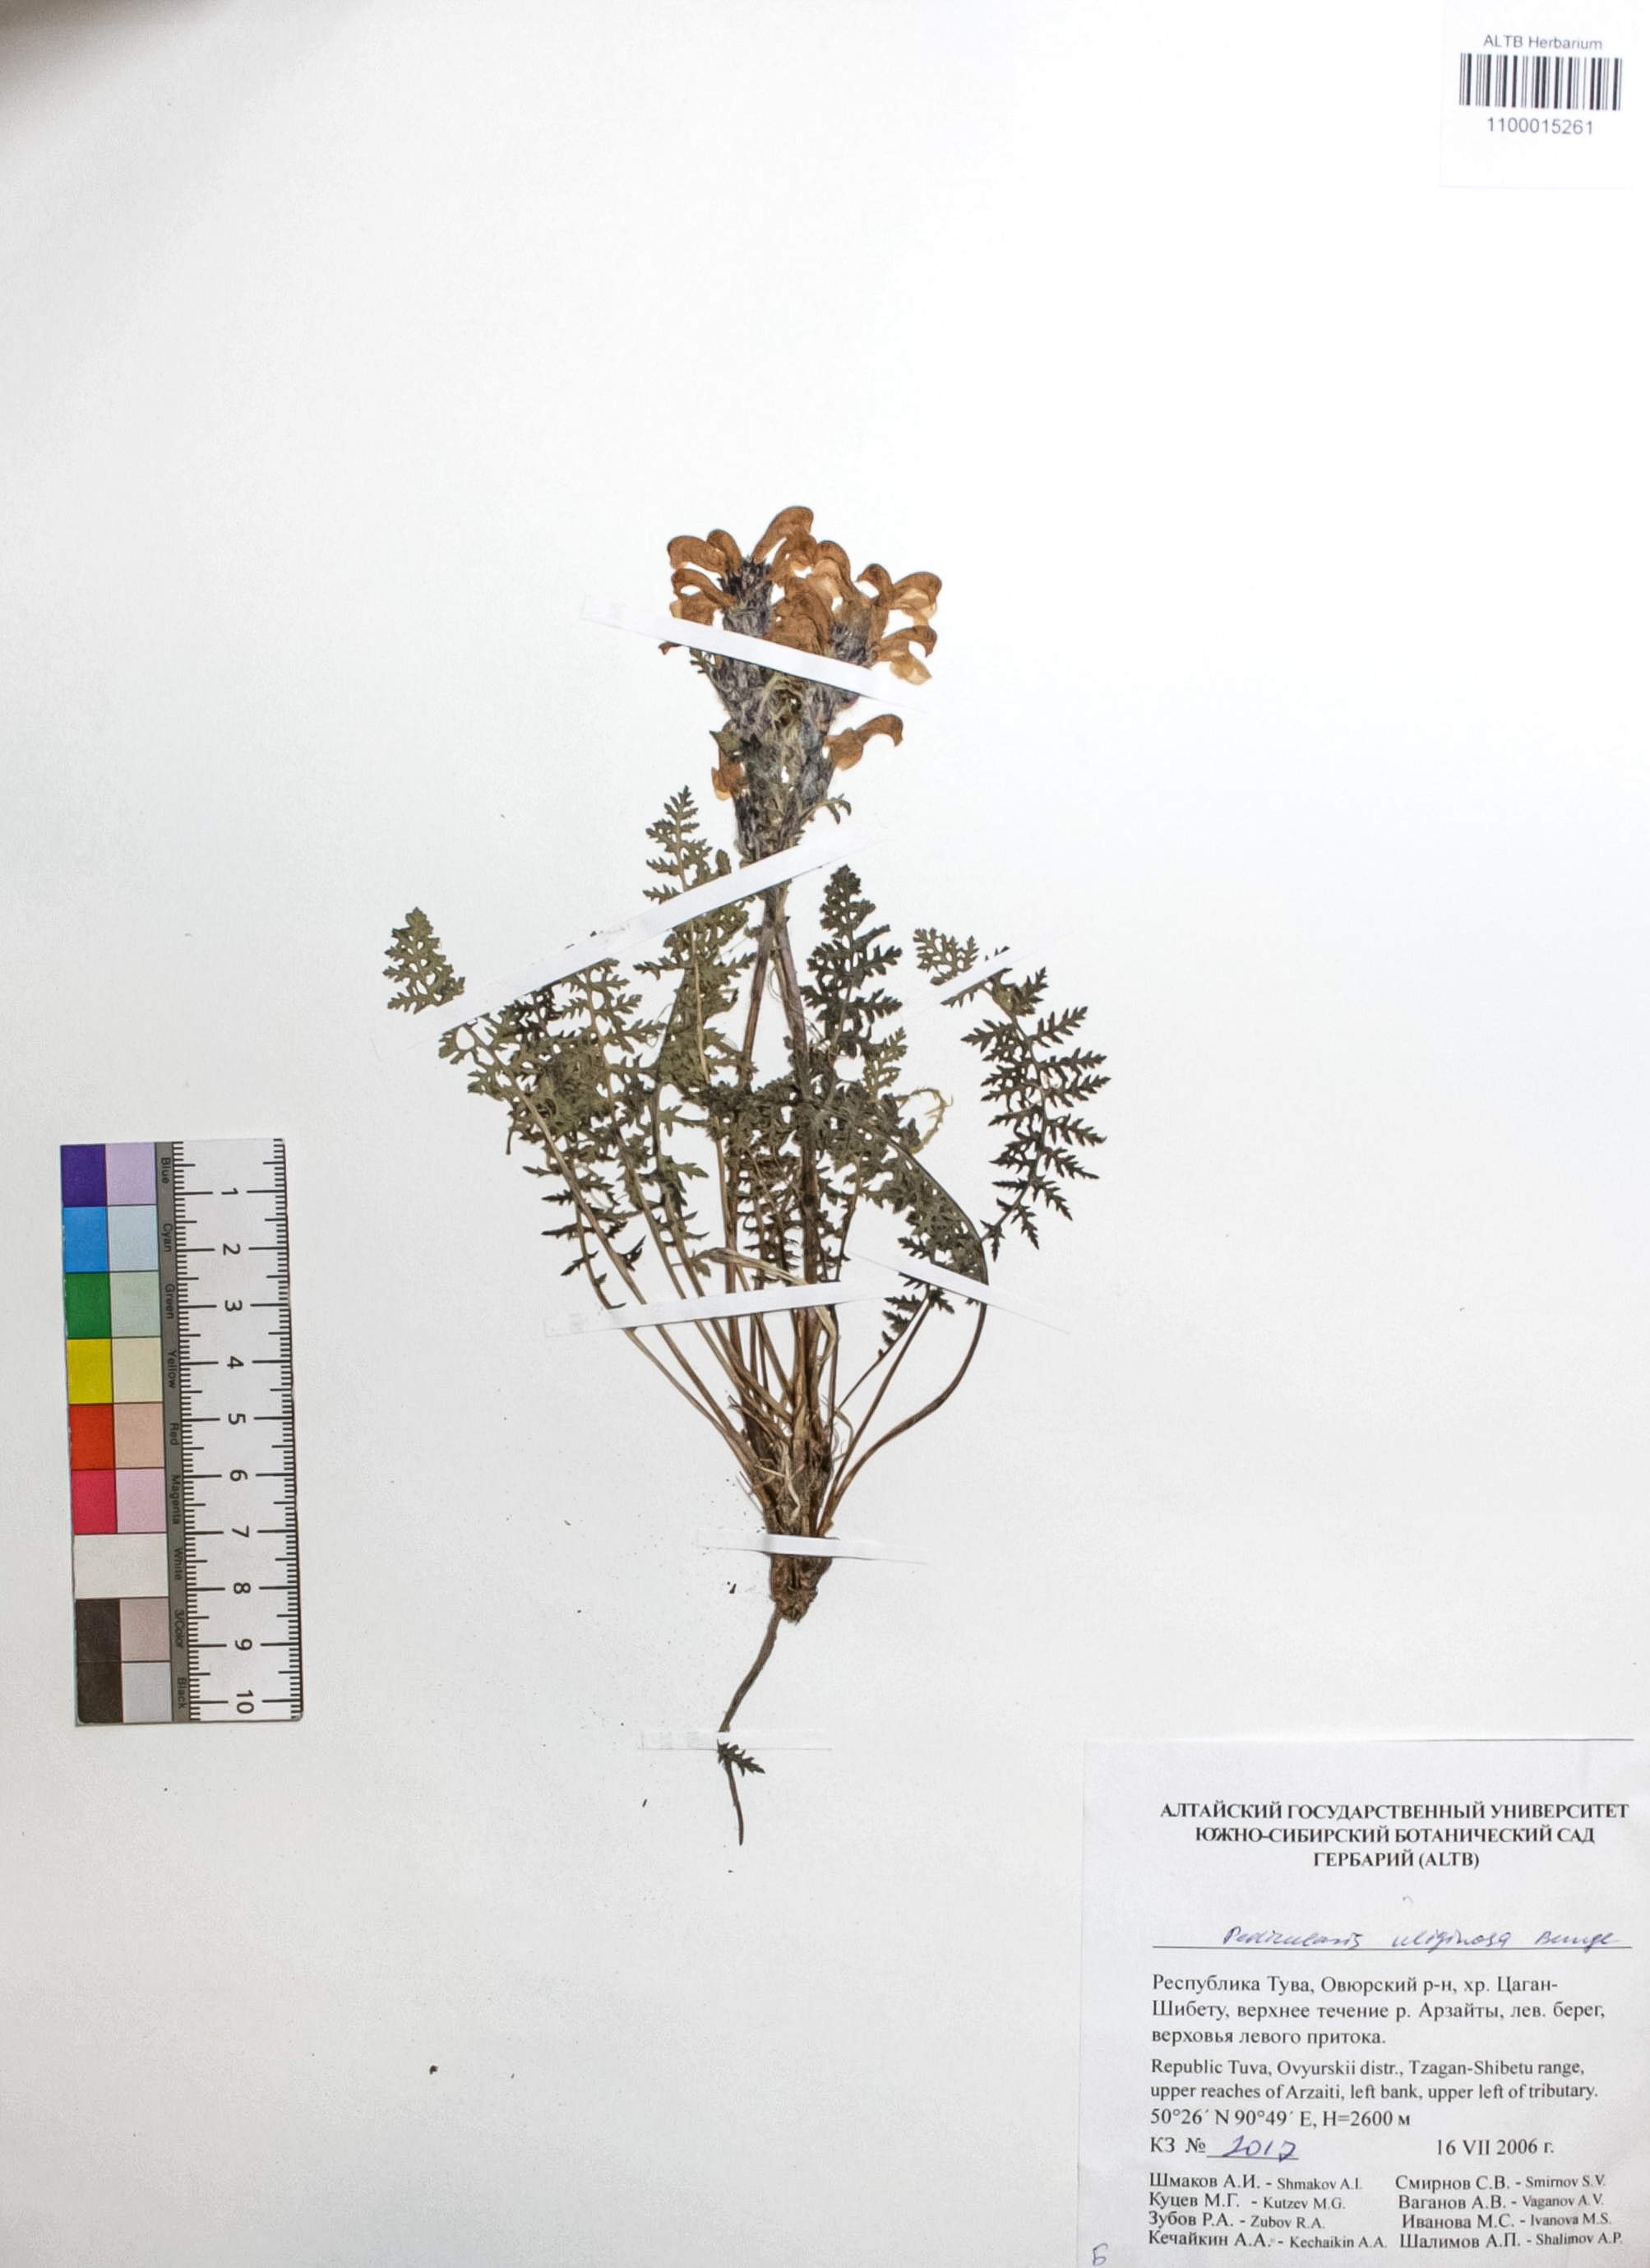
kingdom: Plantae
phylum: Tracheophyta
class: Magnoliopsida
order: Lamiales
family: Orobanchaceae
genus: Pedicularis
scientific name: Pedicularis uliginosa
